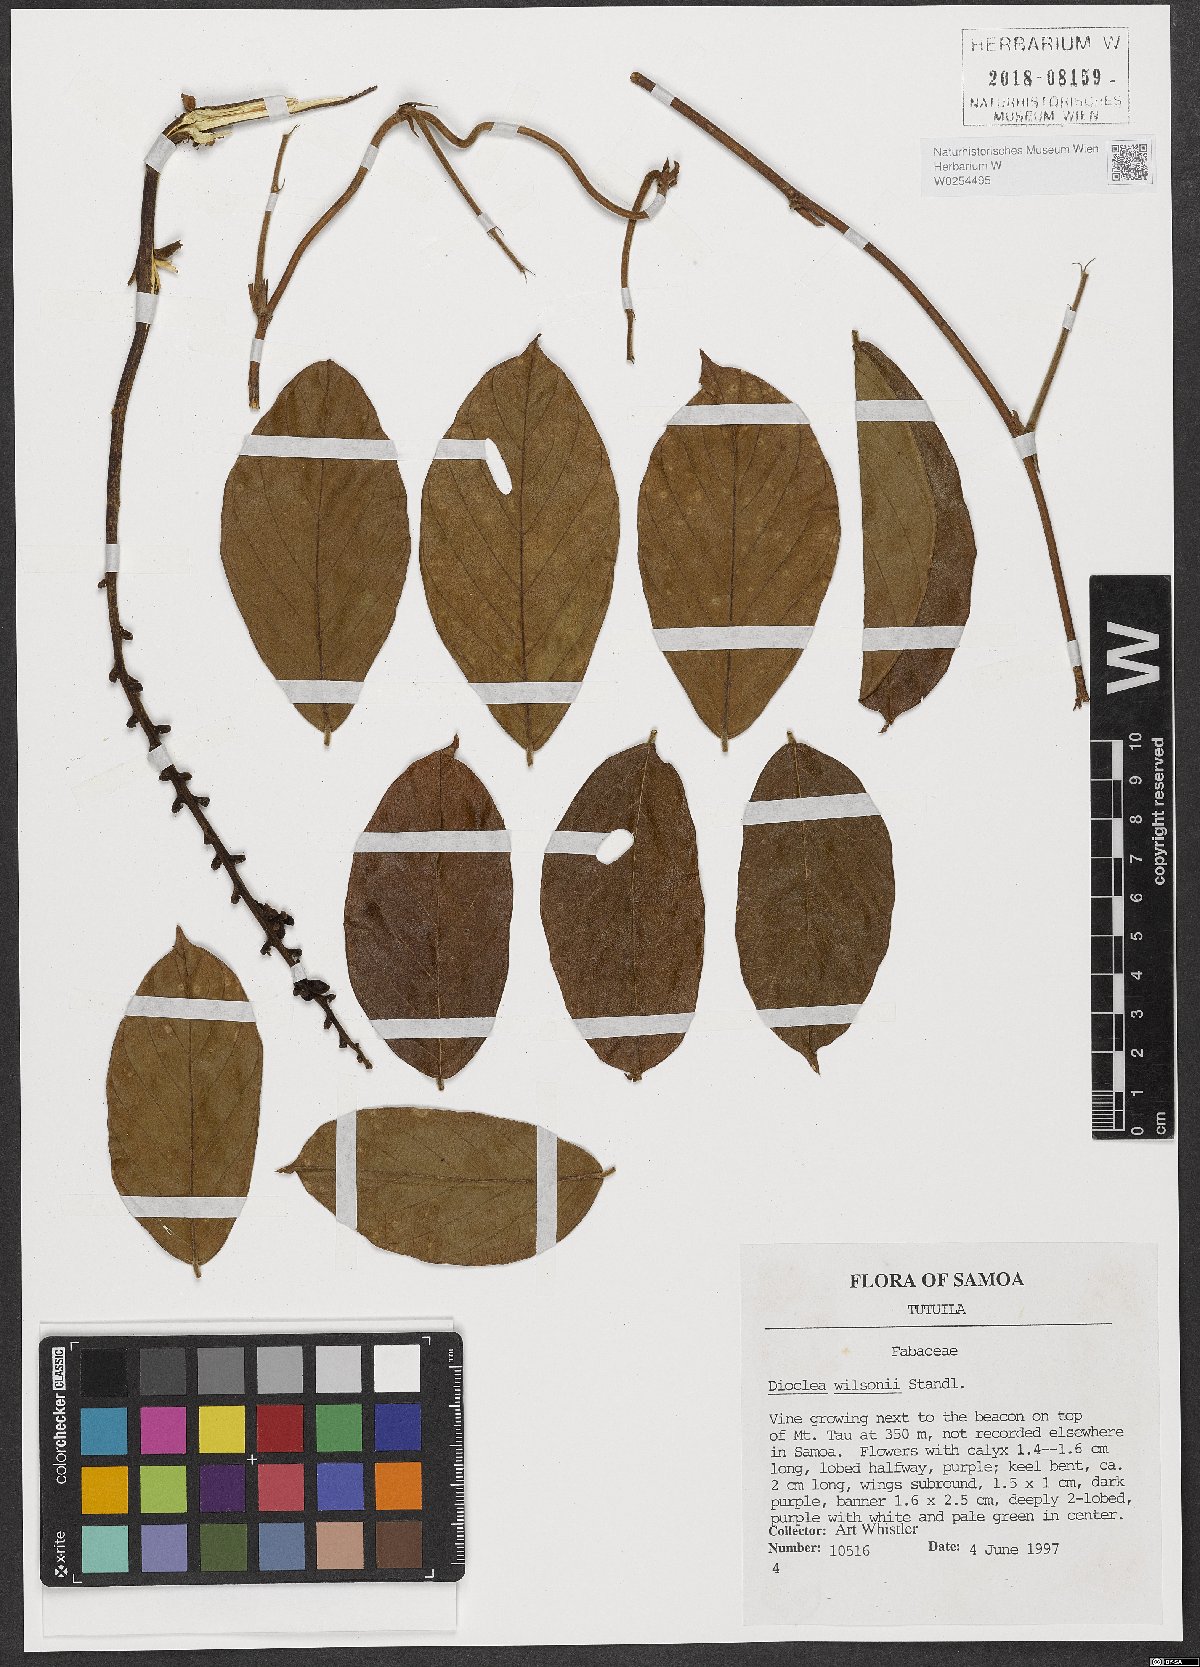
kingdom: Plantae
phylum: Tracheophyta
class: Magnoliopsida
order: Fabales
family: Fabaceae
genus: Macropsychanthus
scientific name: Macropsychanthus wilsonii
